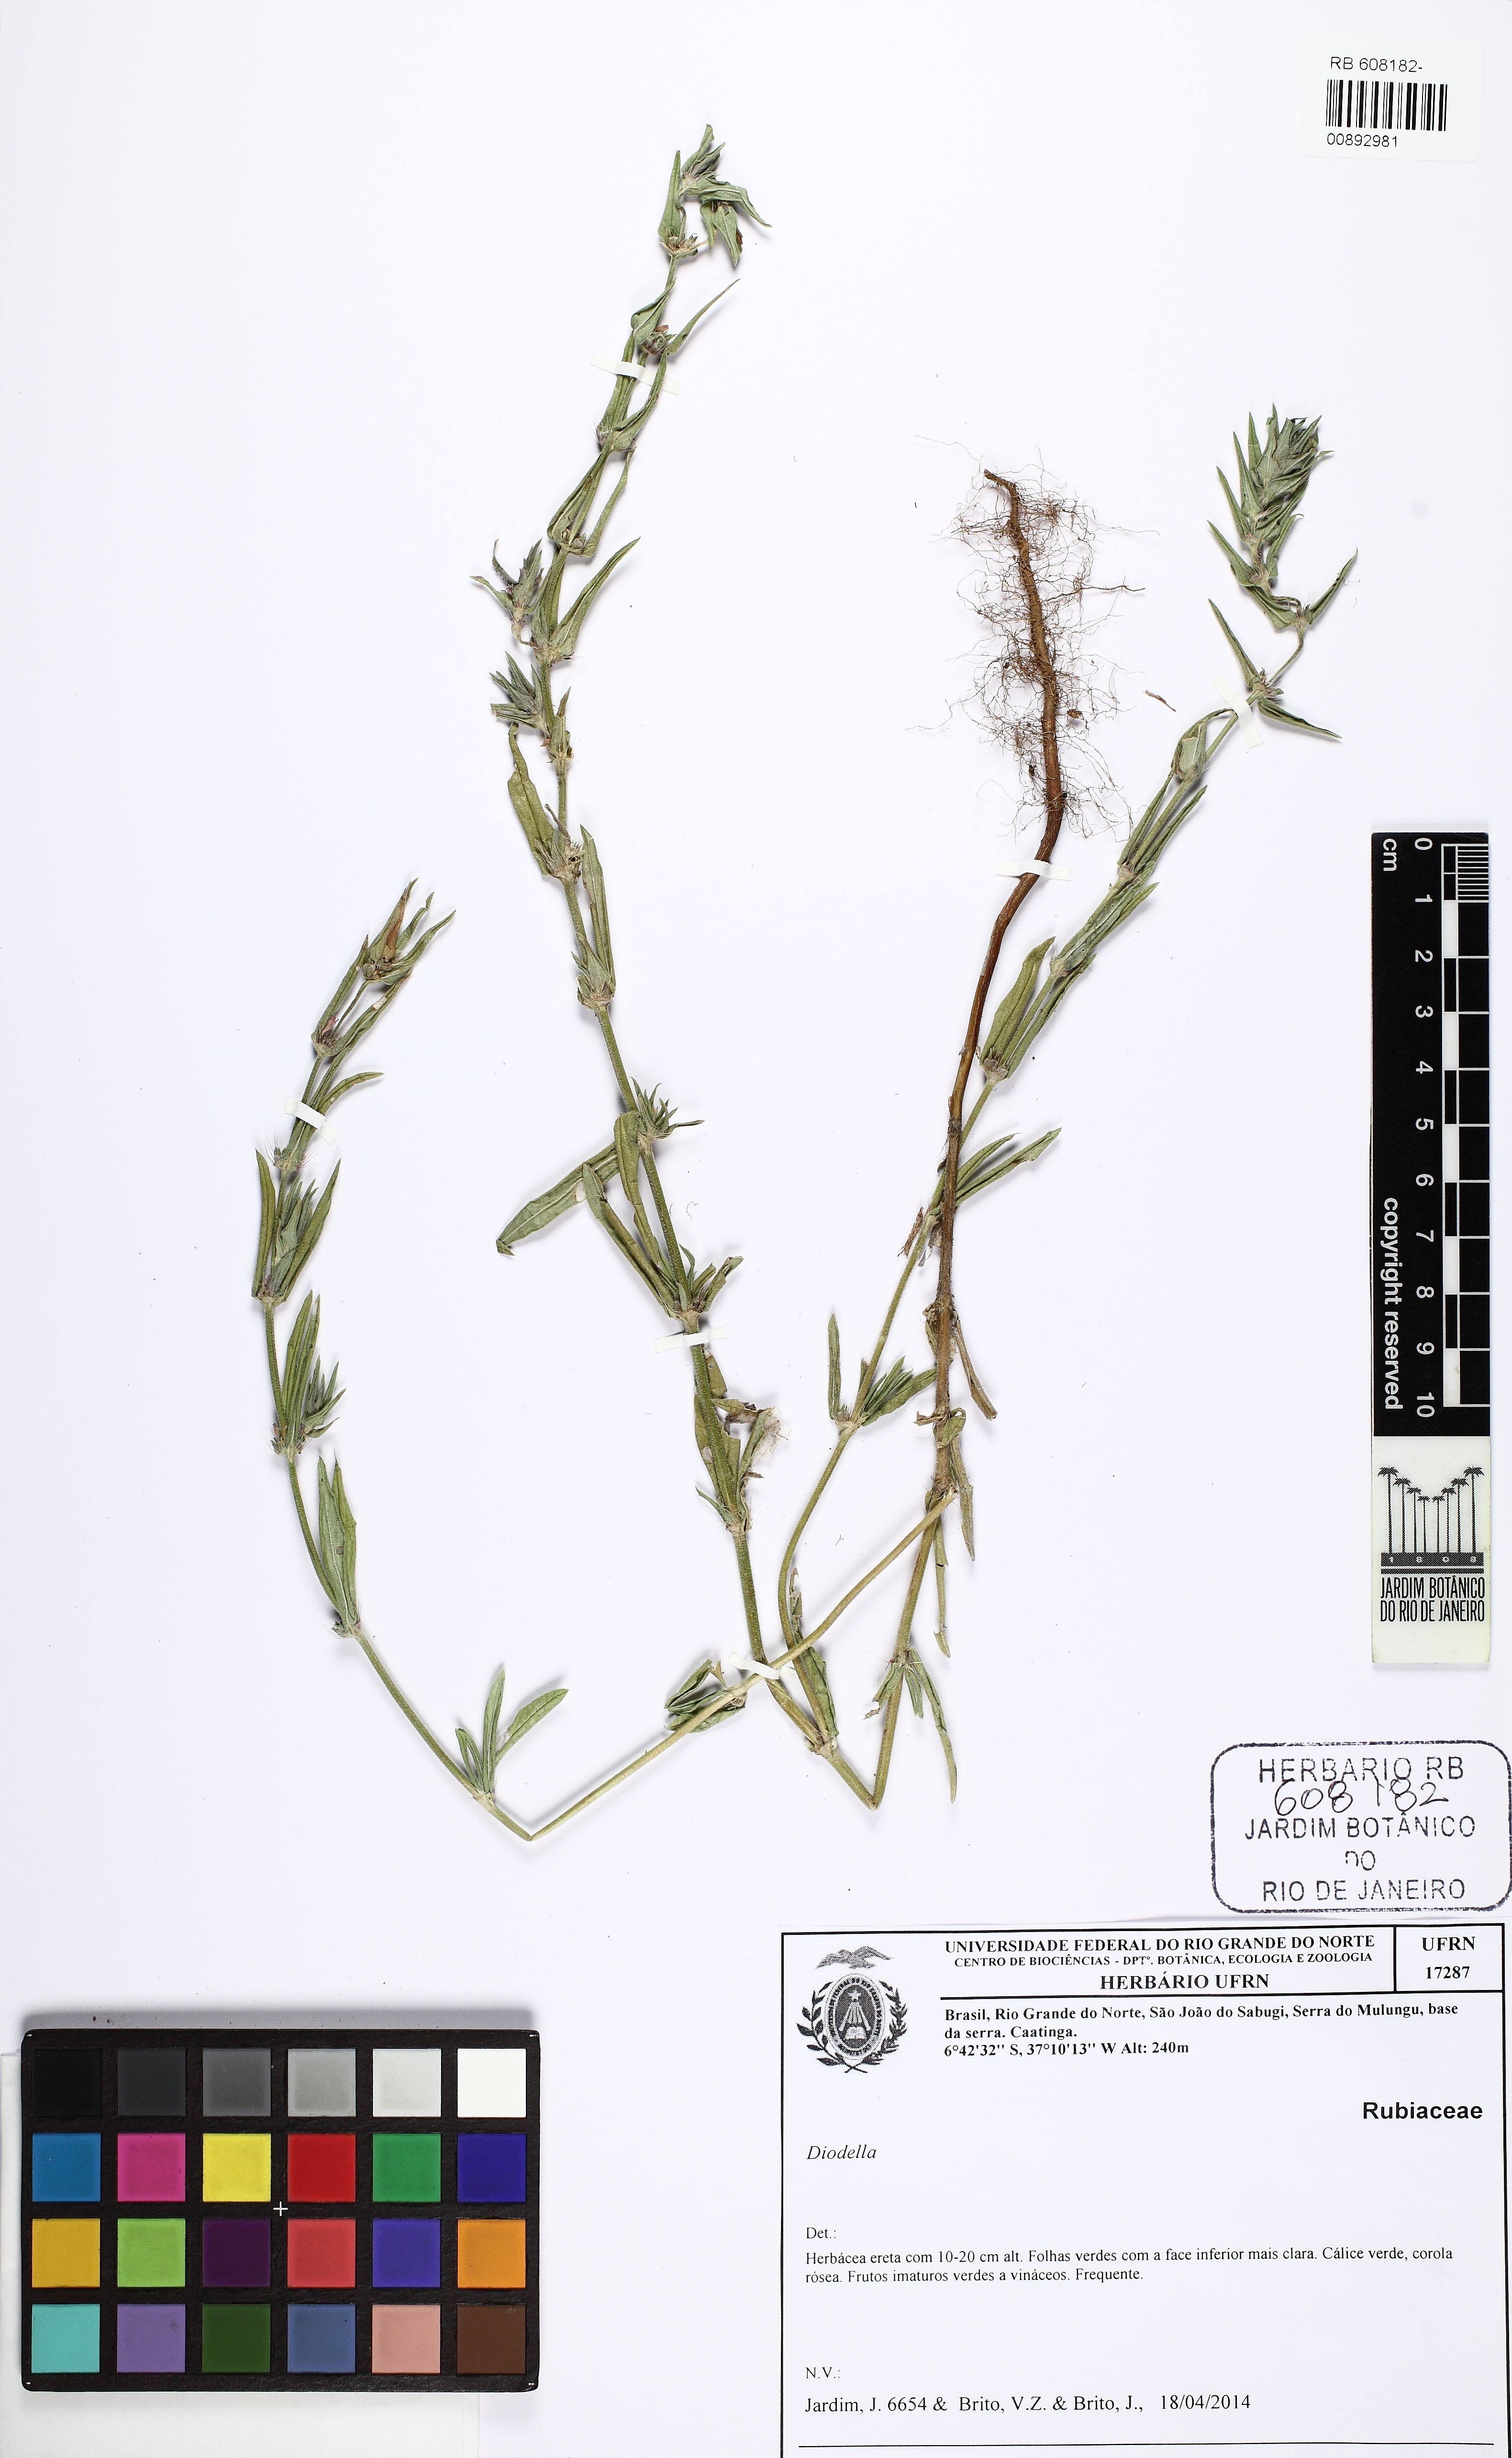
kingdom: Plantae
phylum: Tracheophyta
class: Magnoliopsida
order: Gentianales
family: Rubiaceae
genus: Hexasepalum
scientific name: Hexasepalum teres
